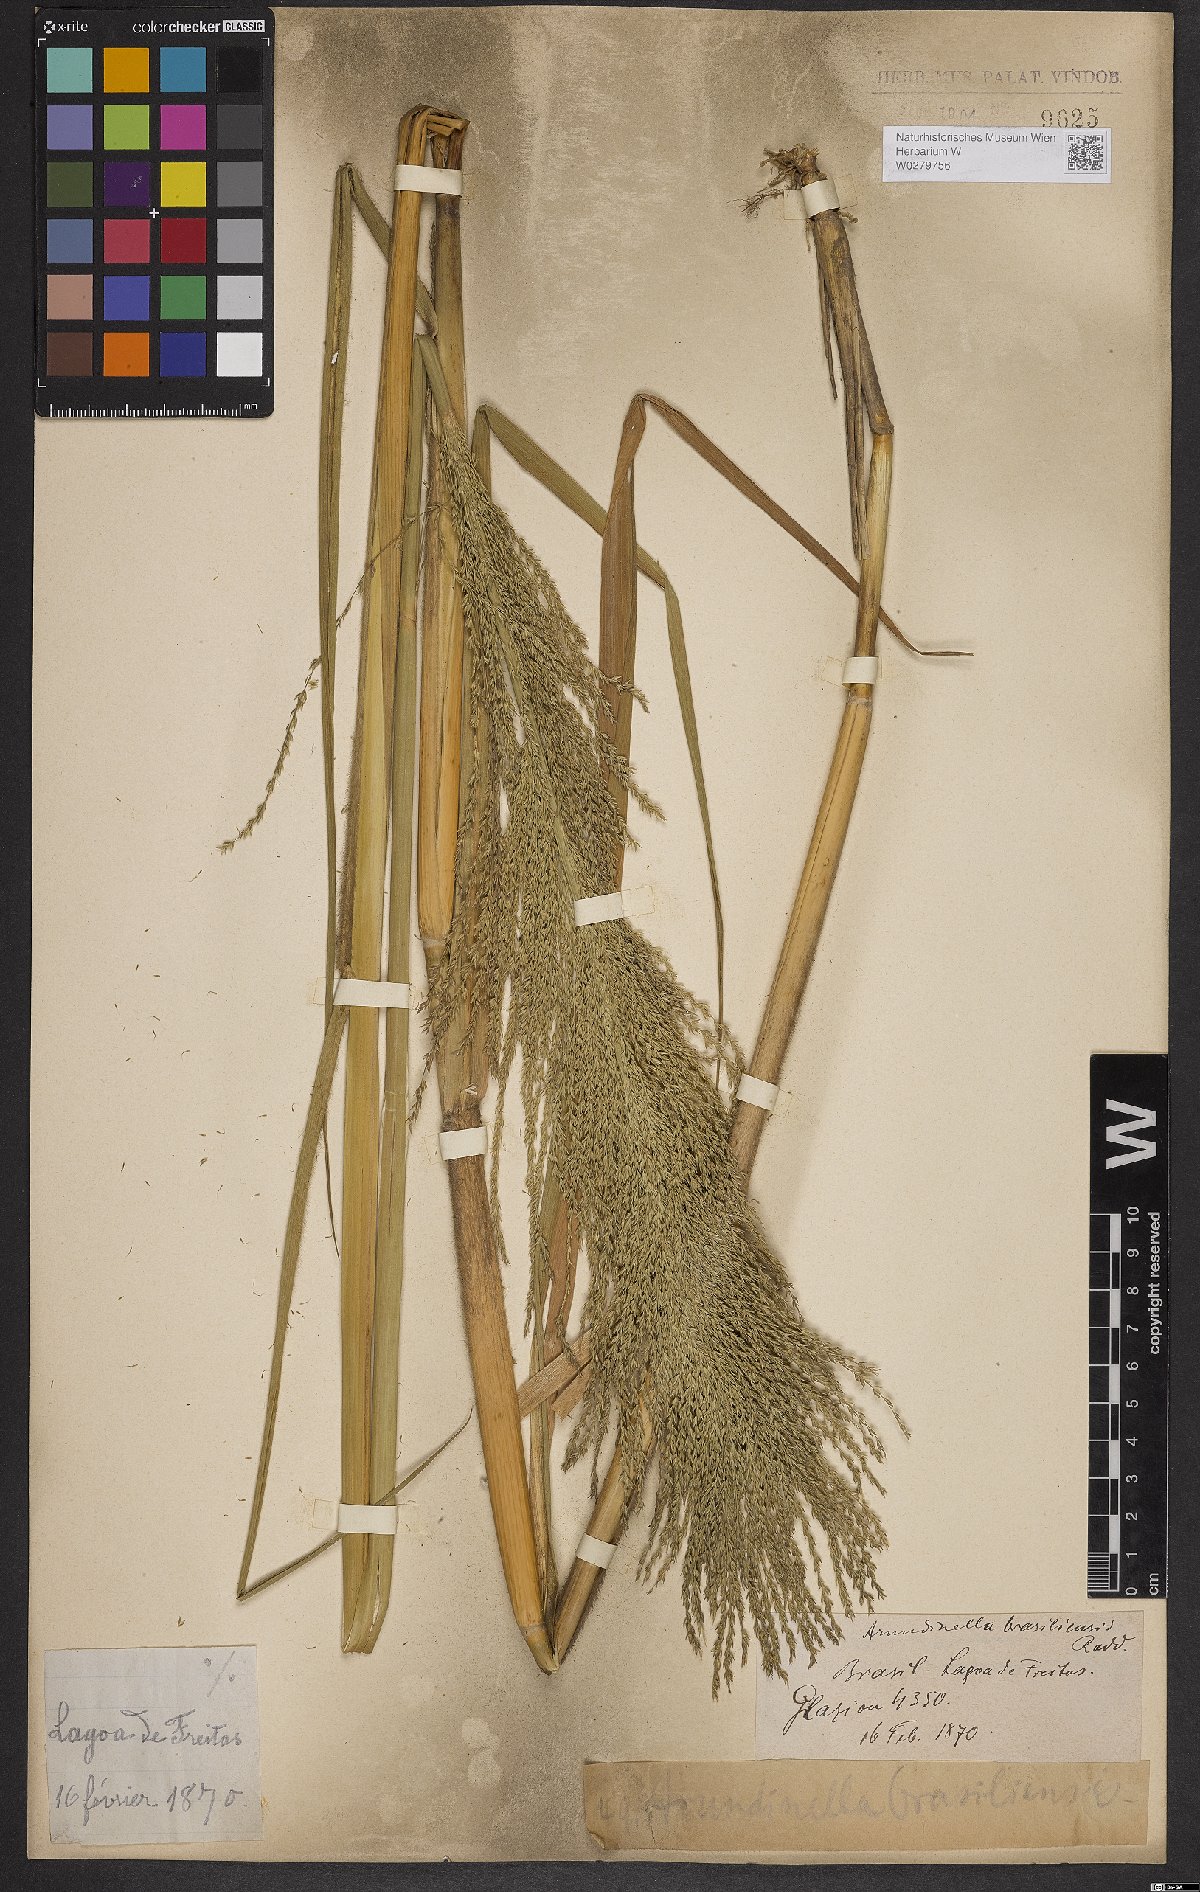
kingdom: Plantae
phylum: Tracheophyta
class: Liliopsida
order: Poales
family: Poaceae
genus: Arundinella
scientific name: Arundinella hispida
